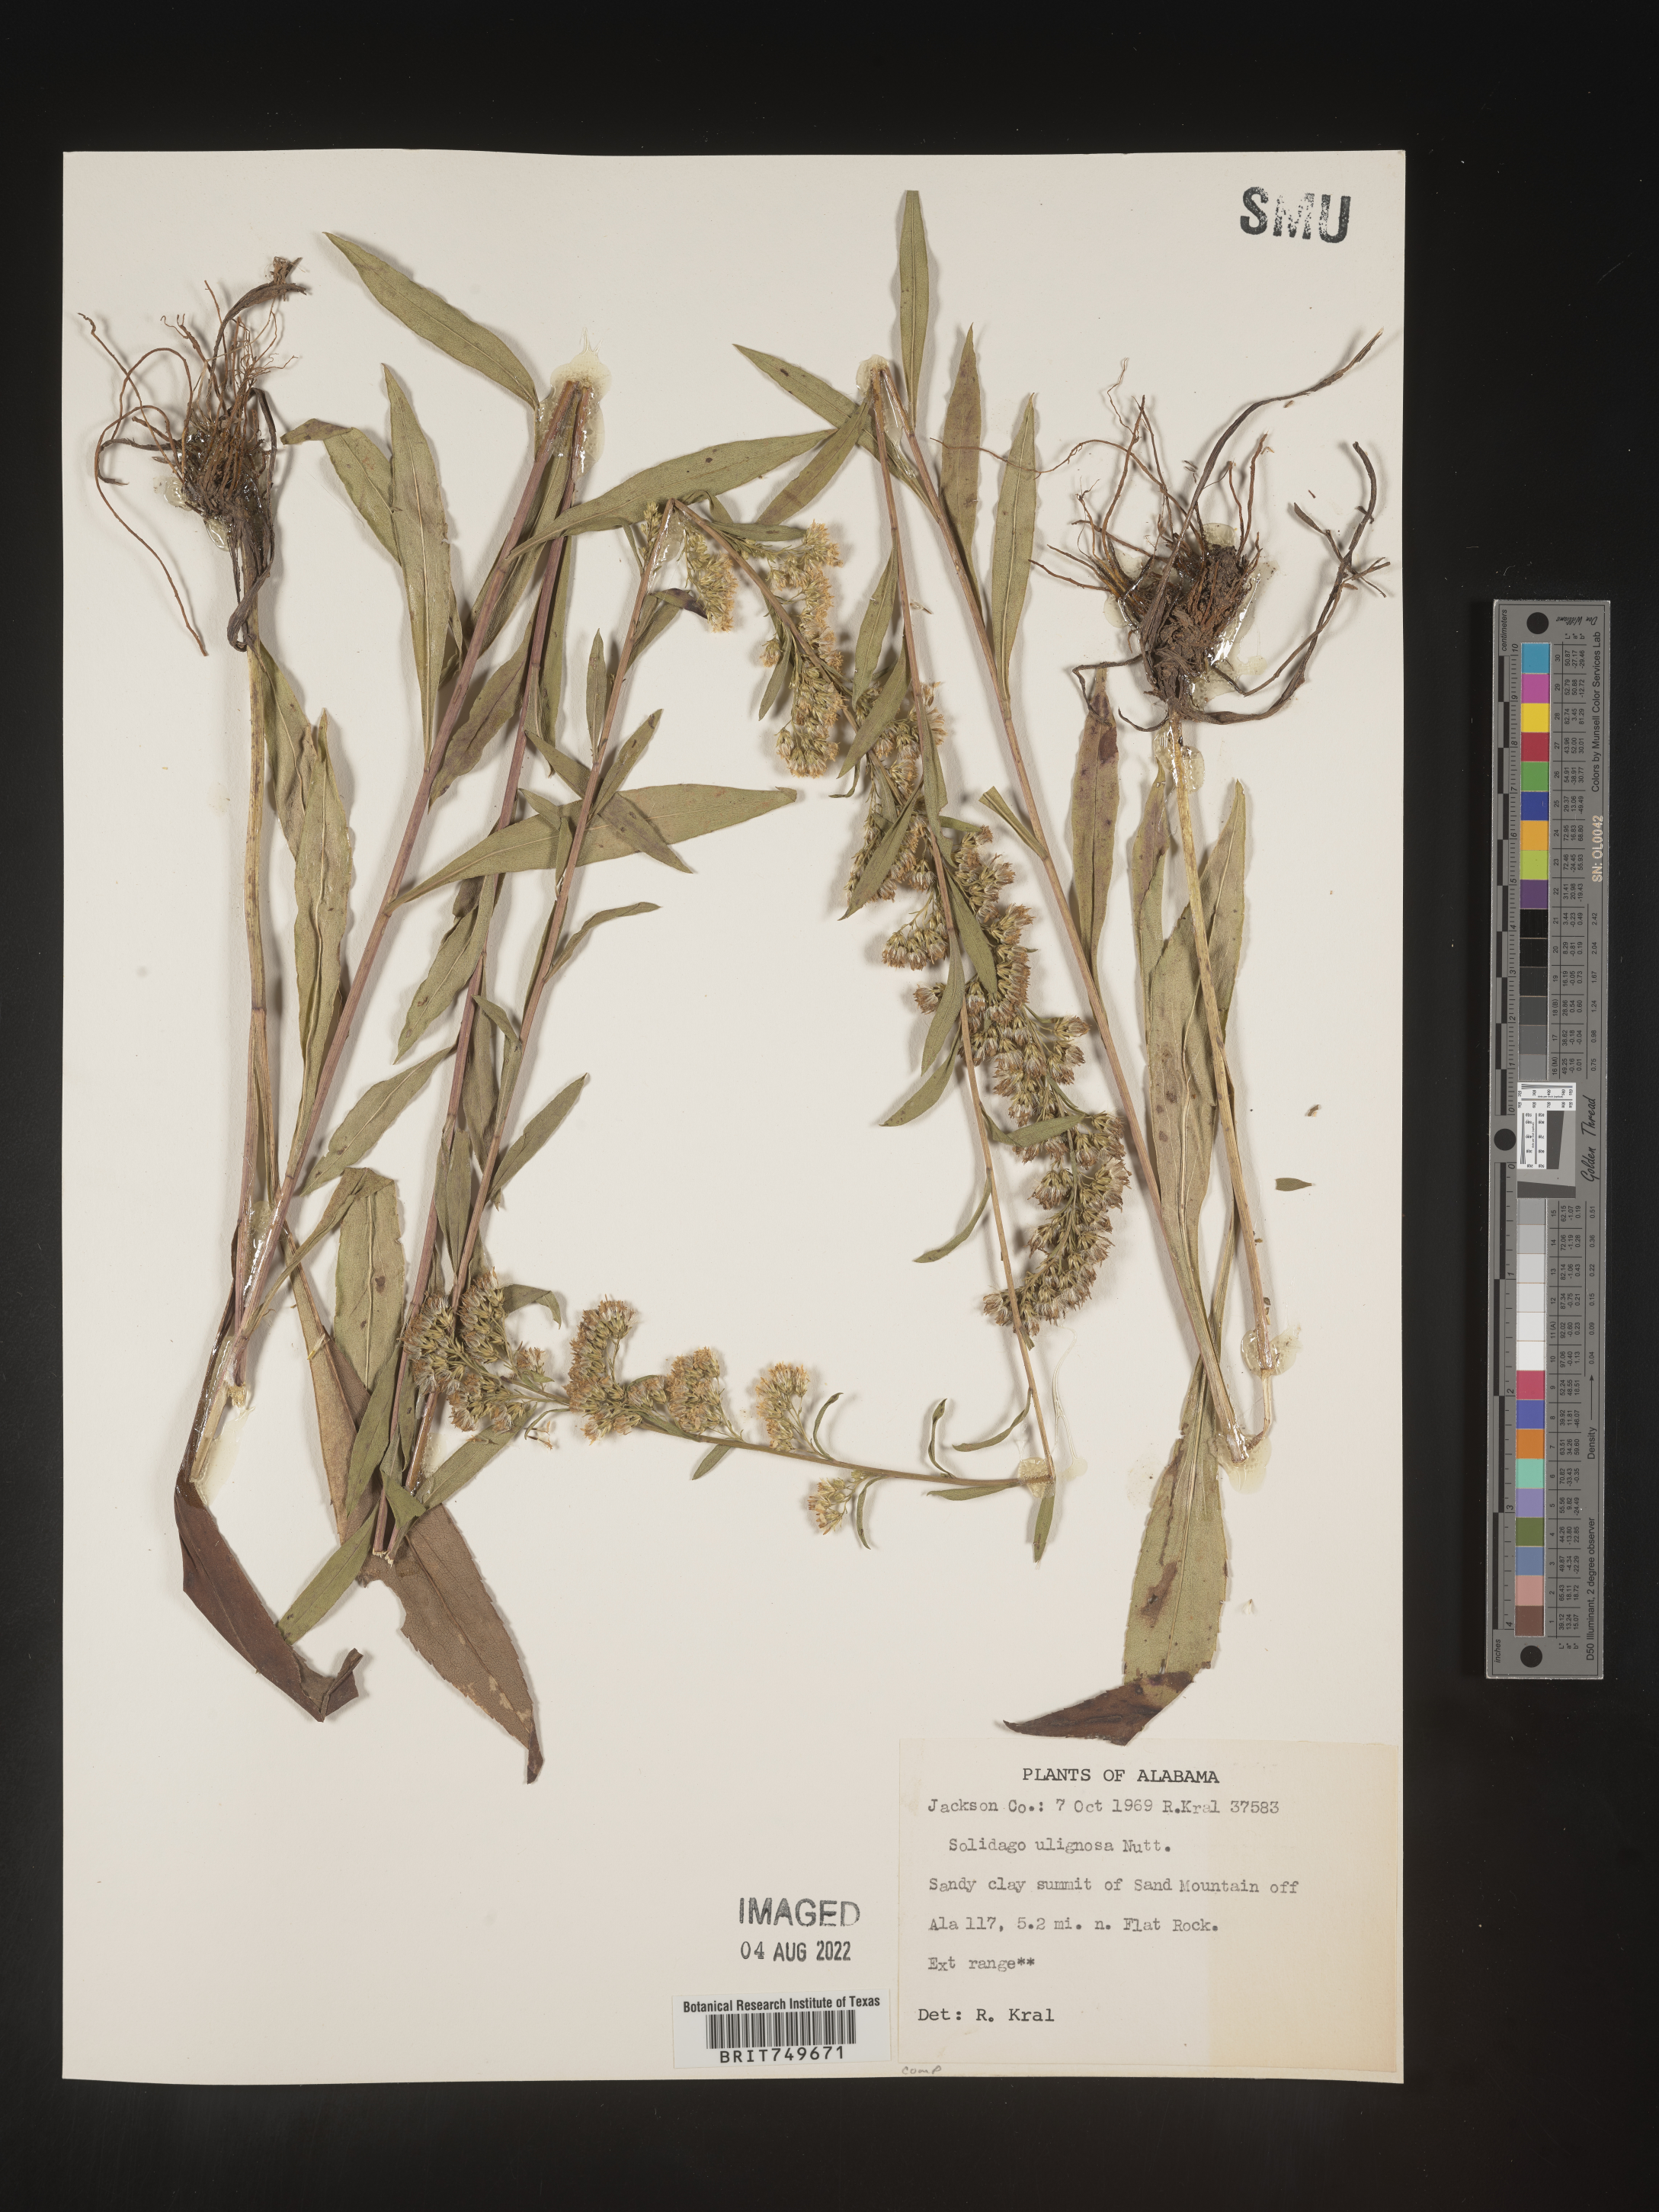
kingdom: Plantae
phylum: Tracheophyta
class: Magnoliopsida
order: Asterales
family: Asteraceae
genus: Solidago
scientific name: Solidago uliginosa
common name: Bog goldenrod
